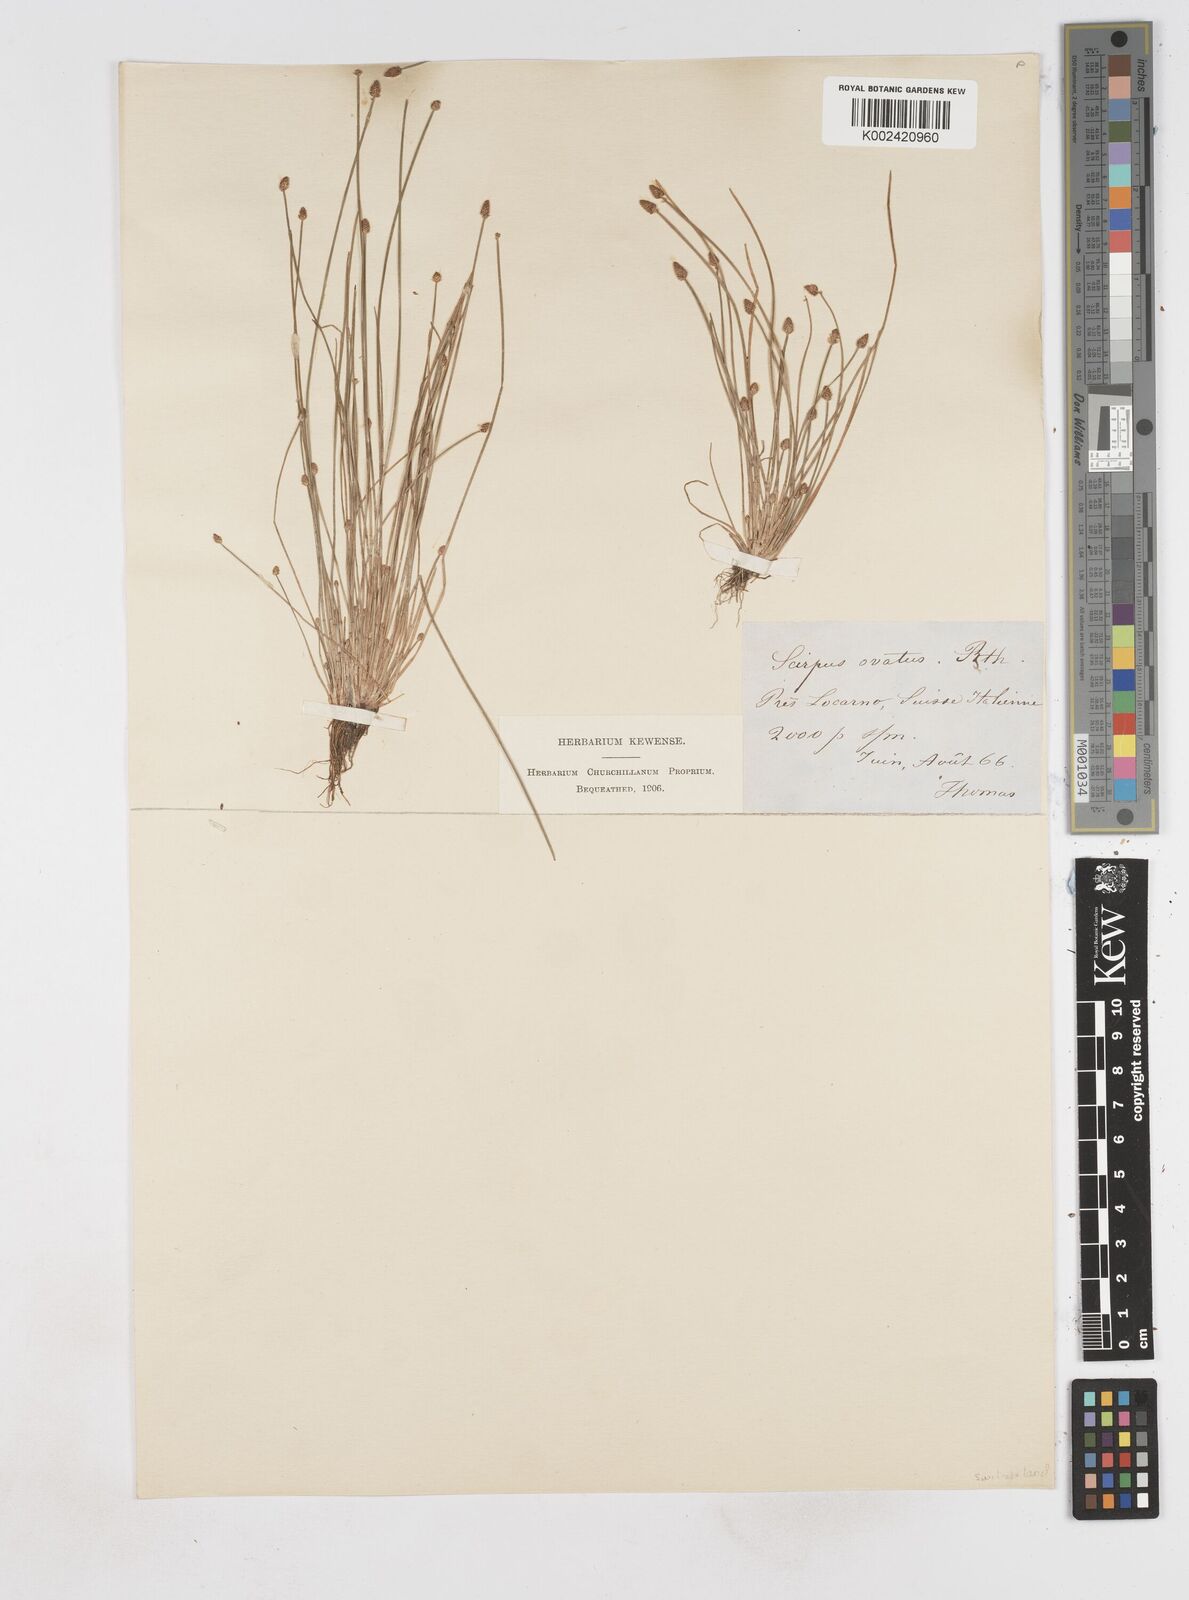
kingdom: Plantae
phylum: Tracheophyta
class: Liliopsida
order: Poales
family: Cyperaceae
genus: Eleocharis
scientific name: Eleocharis ovata
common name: Oval spike-rush
